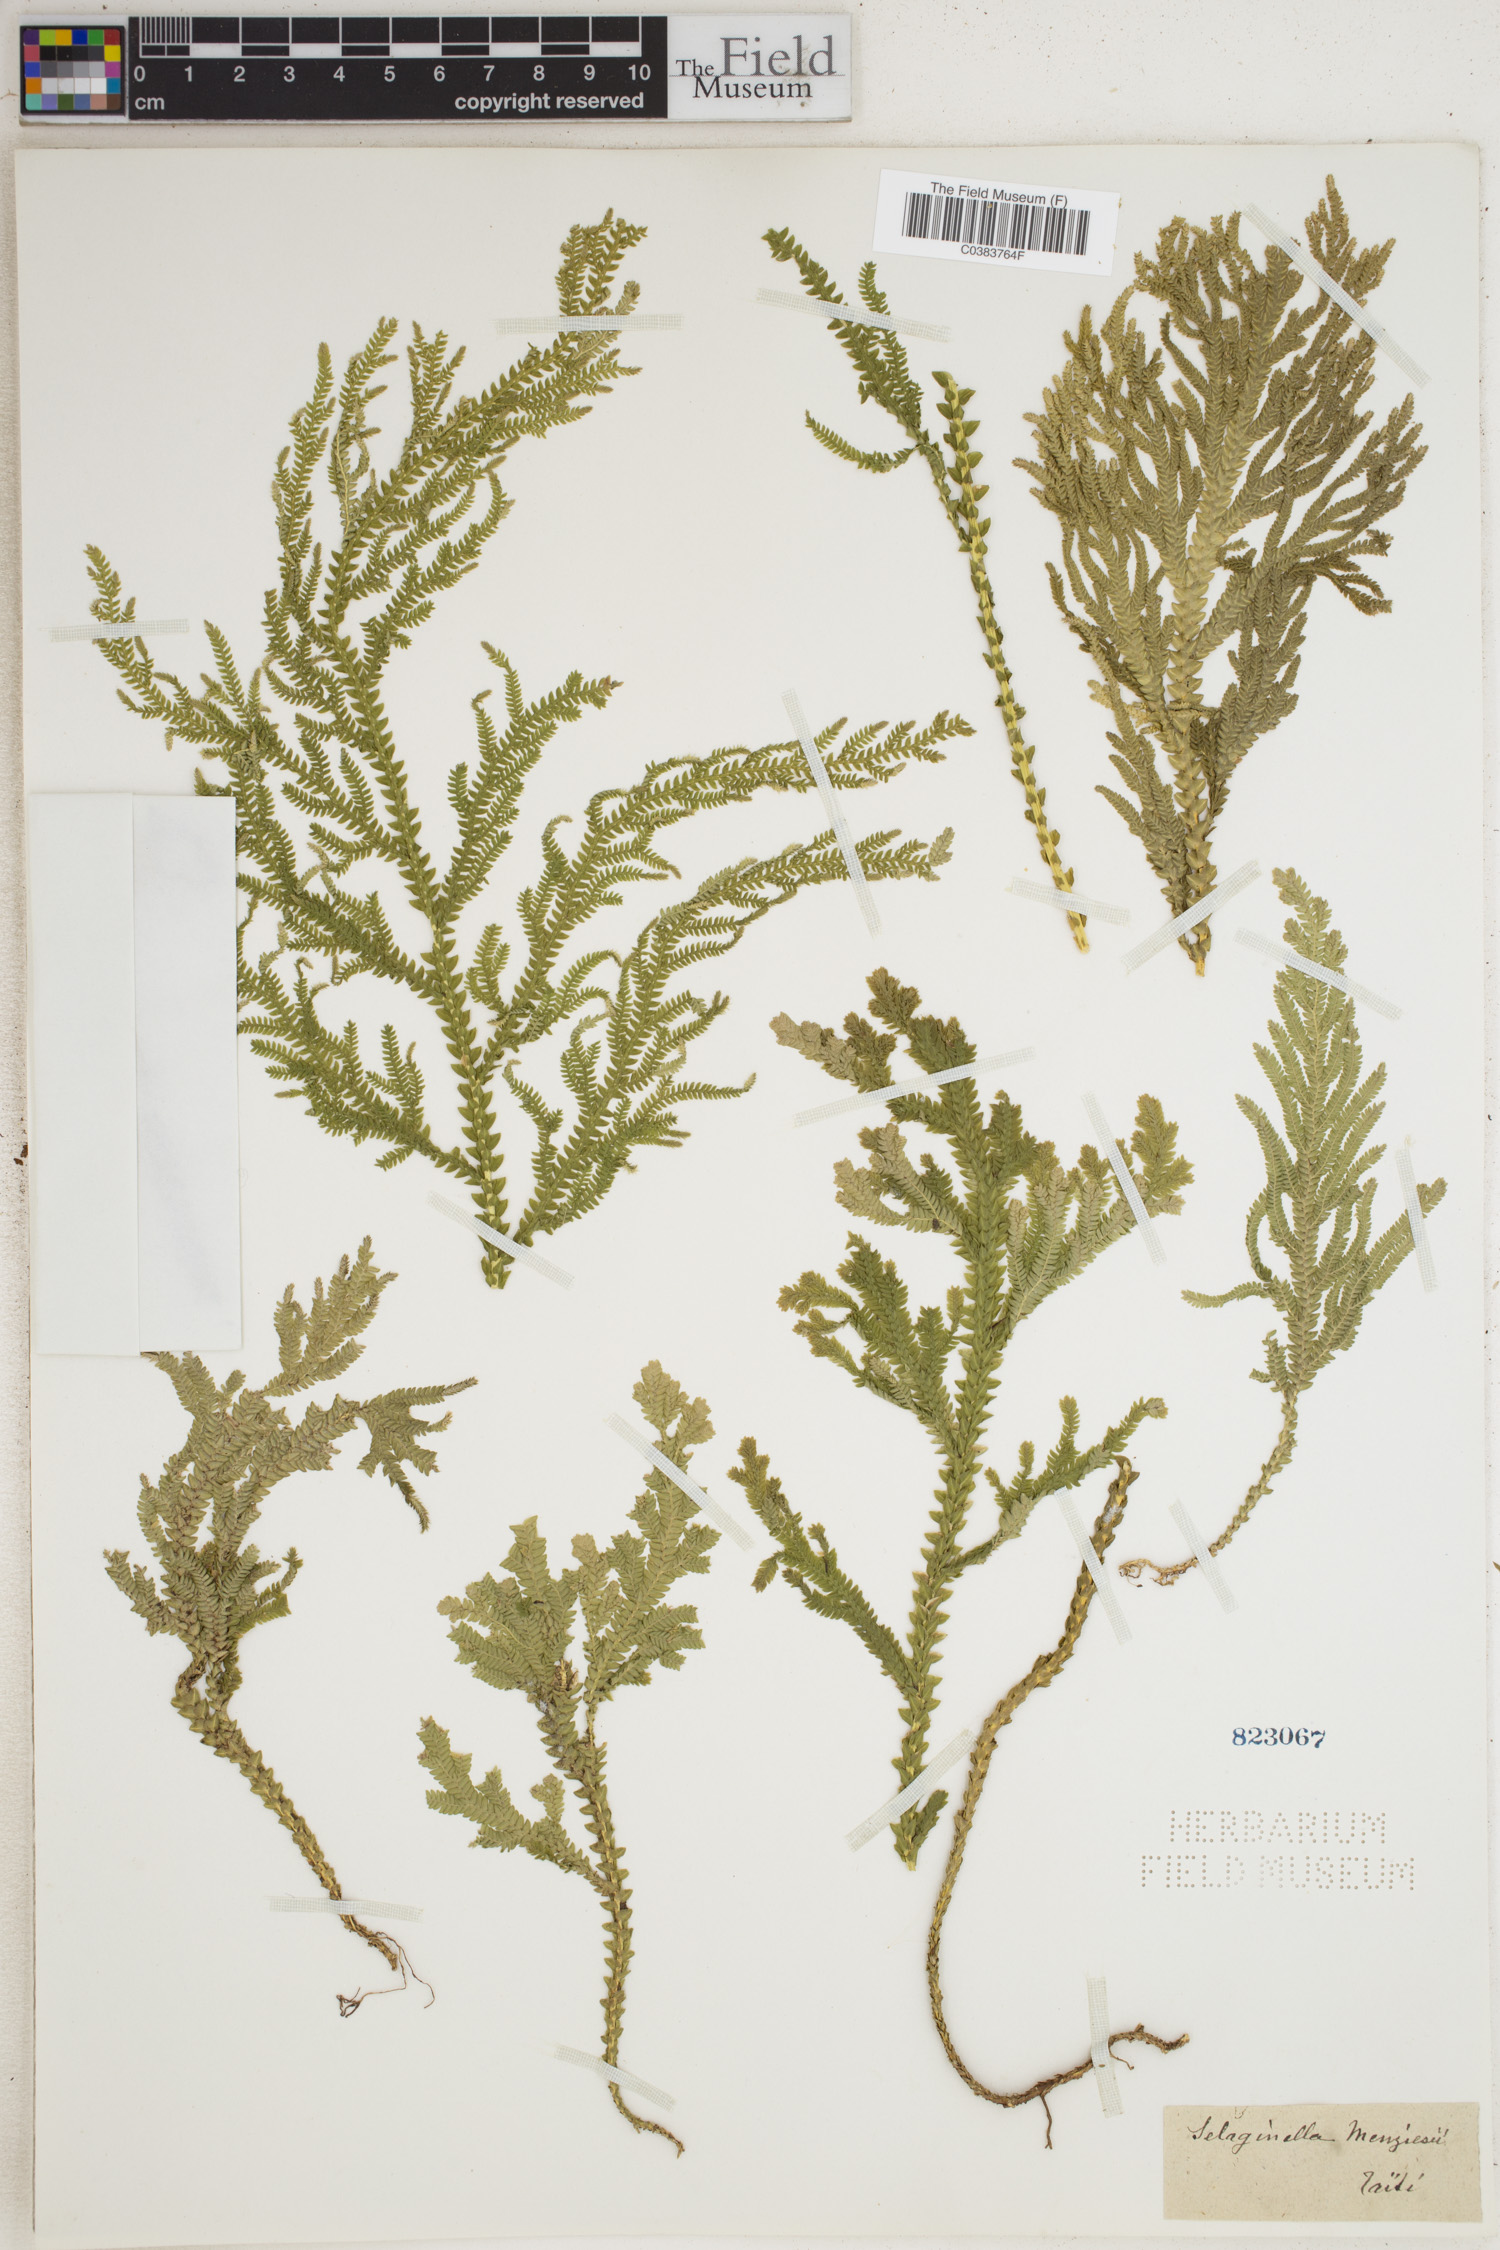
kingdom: Plantae
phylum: Tracheophyta
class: Lycopodiopsida
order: Selaginellales
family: Selaginellaceae
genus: Selaginella
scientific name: Selaginella menziesii
